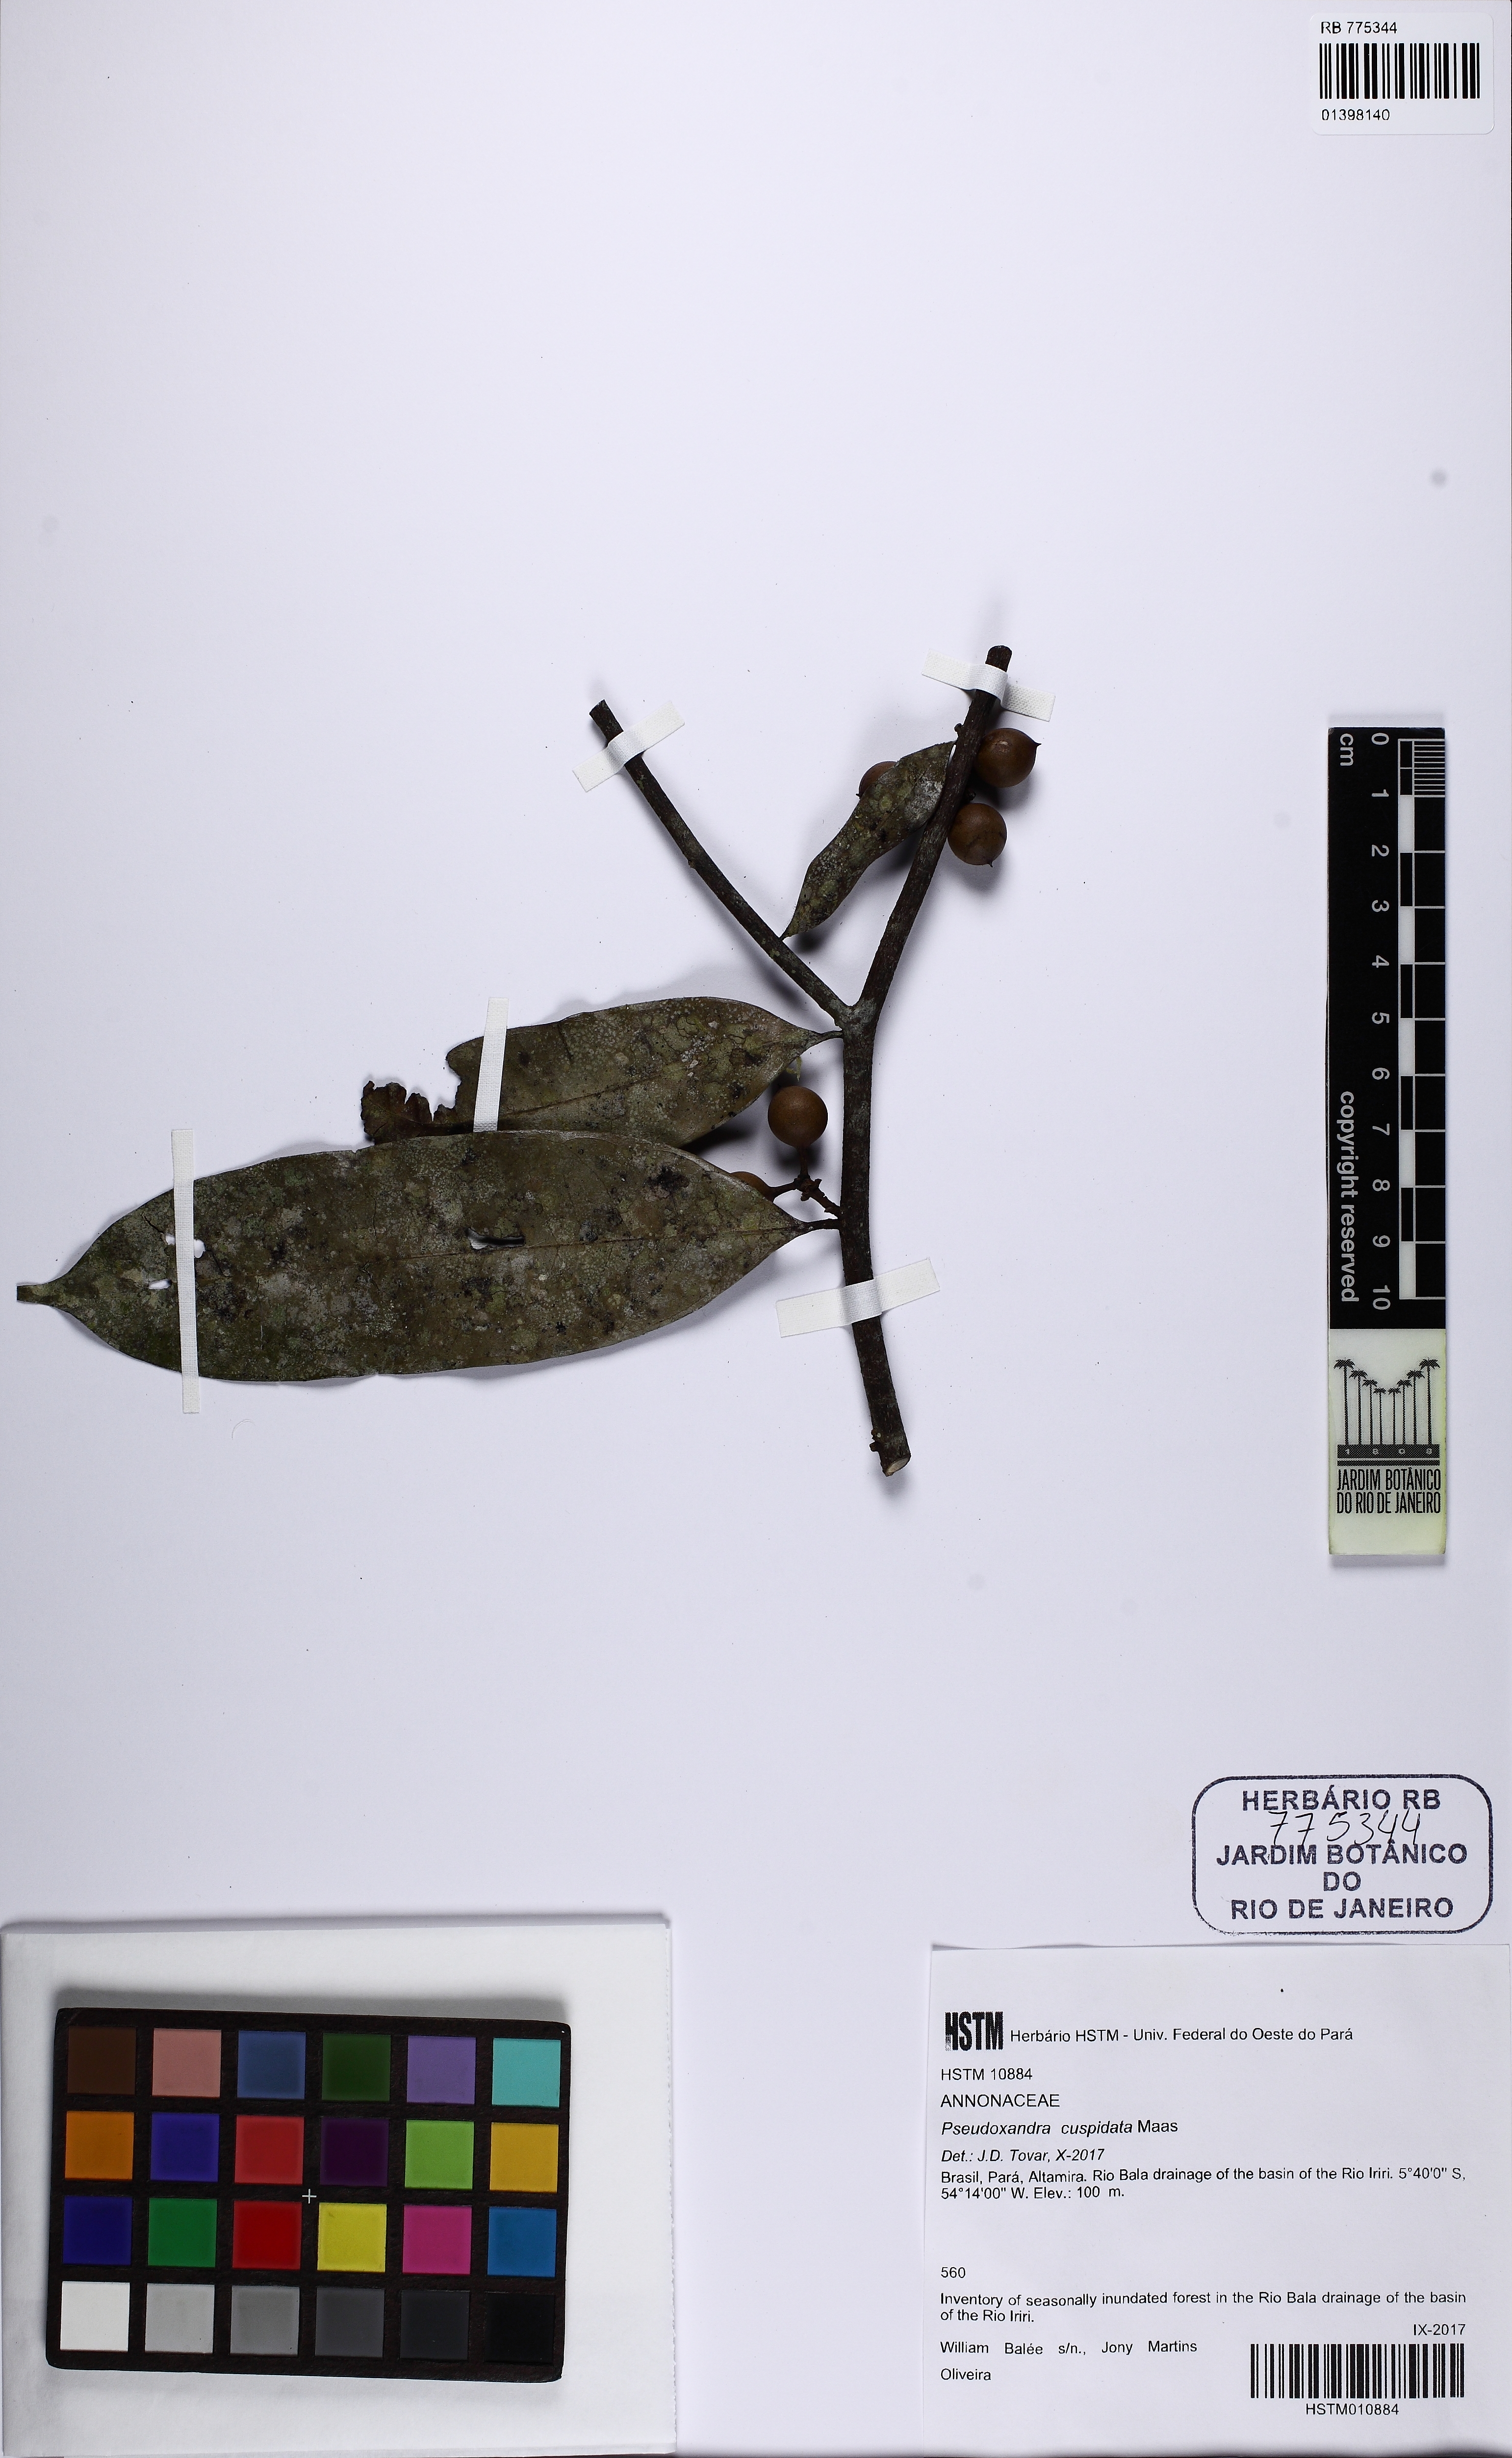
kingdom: Plantae
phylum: Tracheophyta
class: Magnoliopsida
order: Magnoliales
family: Annonaceae
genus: Pseudoxandra
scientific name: Pseudoxandra cuspidata
